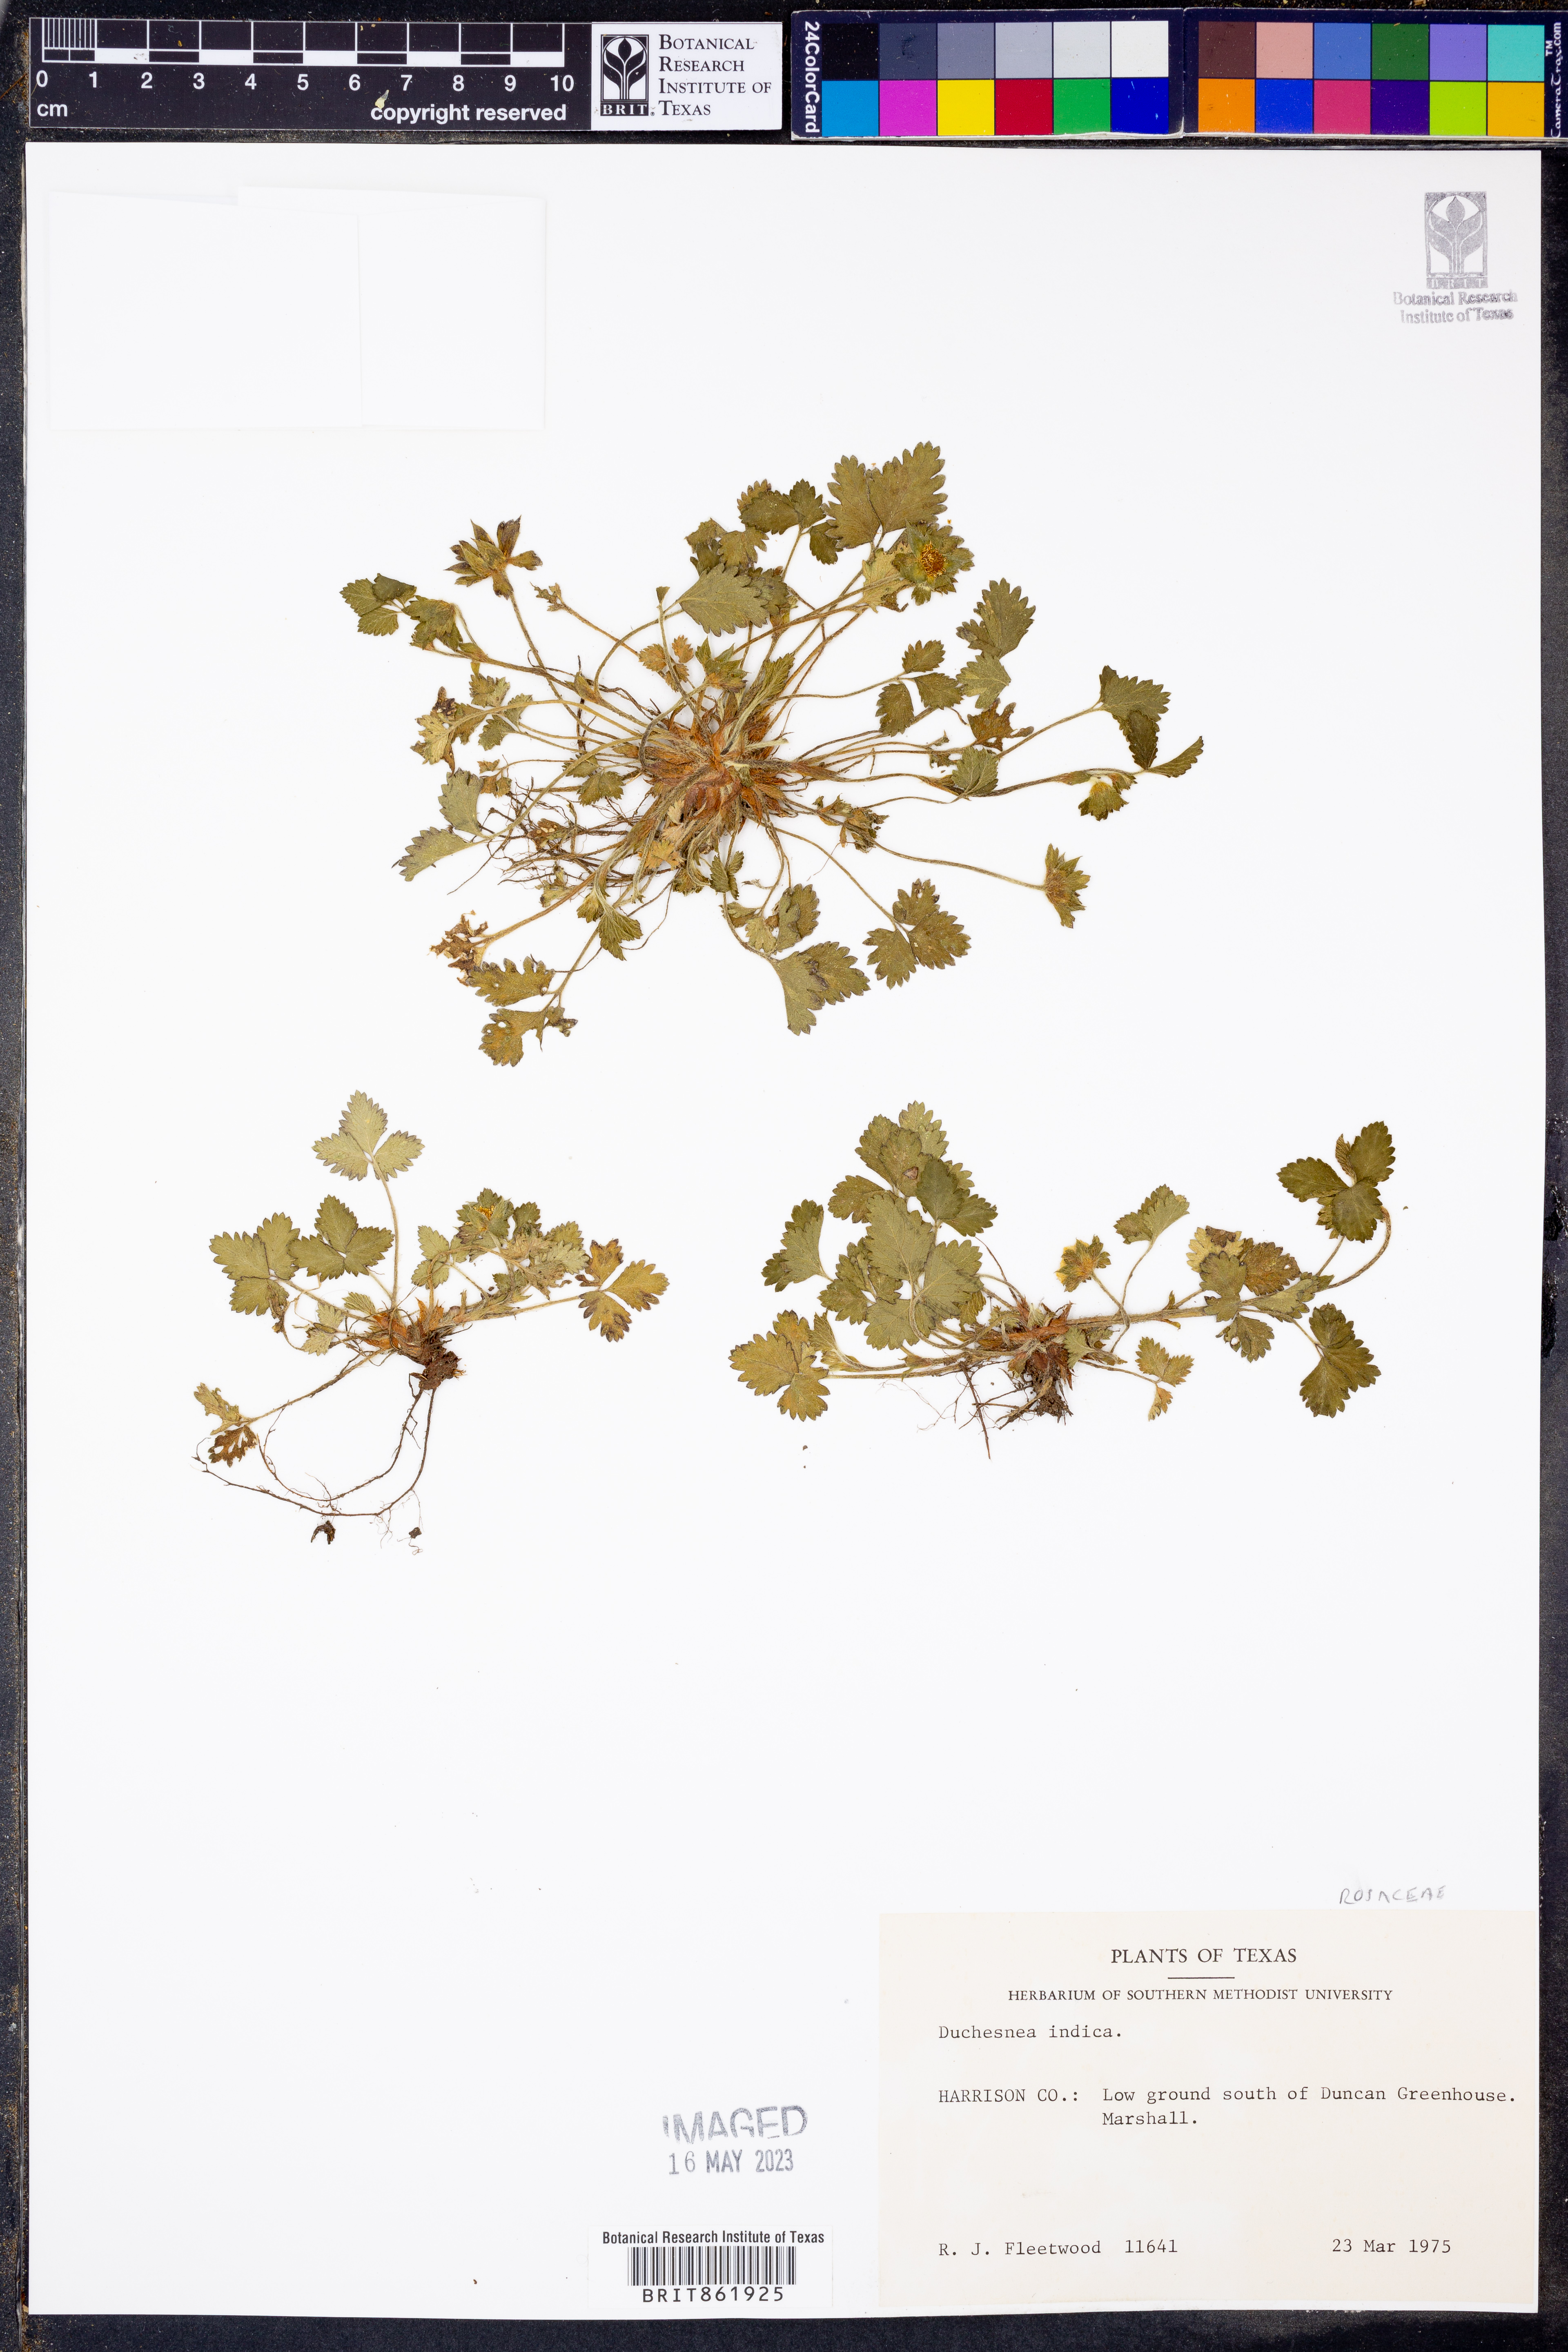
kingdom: Plantae
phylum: Tracheophyta
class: Magnoliopsida
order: Rosales
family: Rosaceae
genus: Potentilla
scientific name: Potentilla indica
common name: Yellow-flowered strawberry
